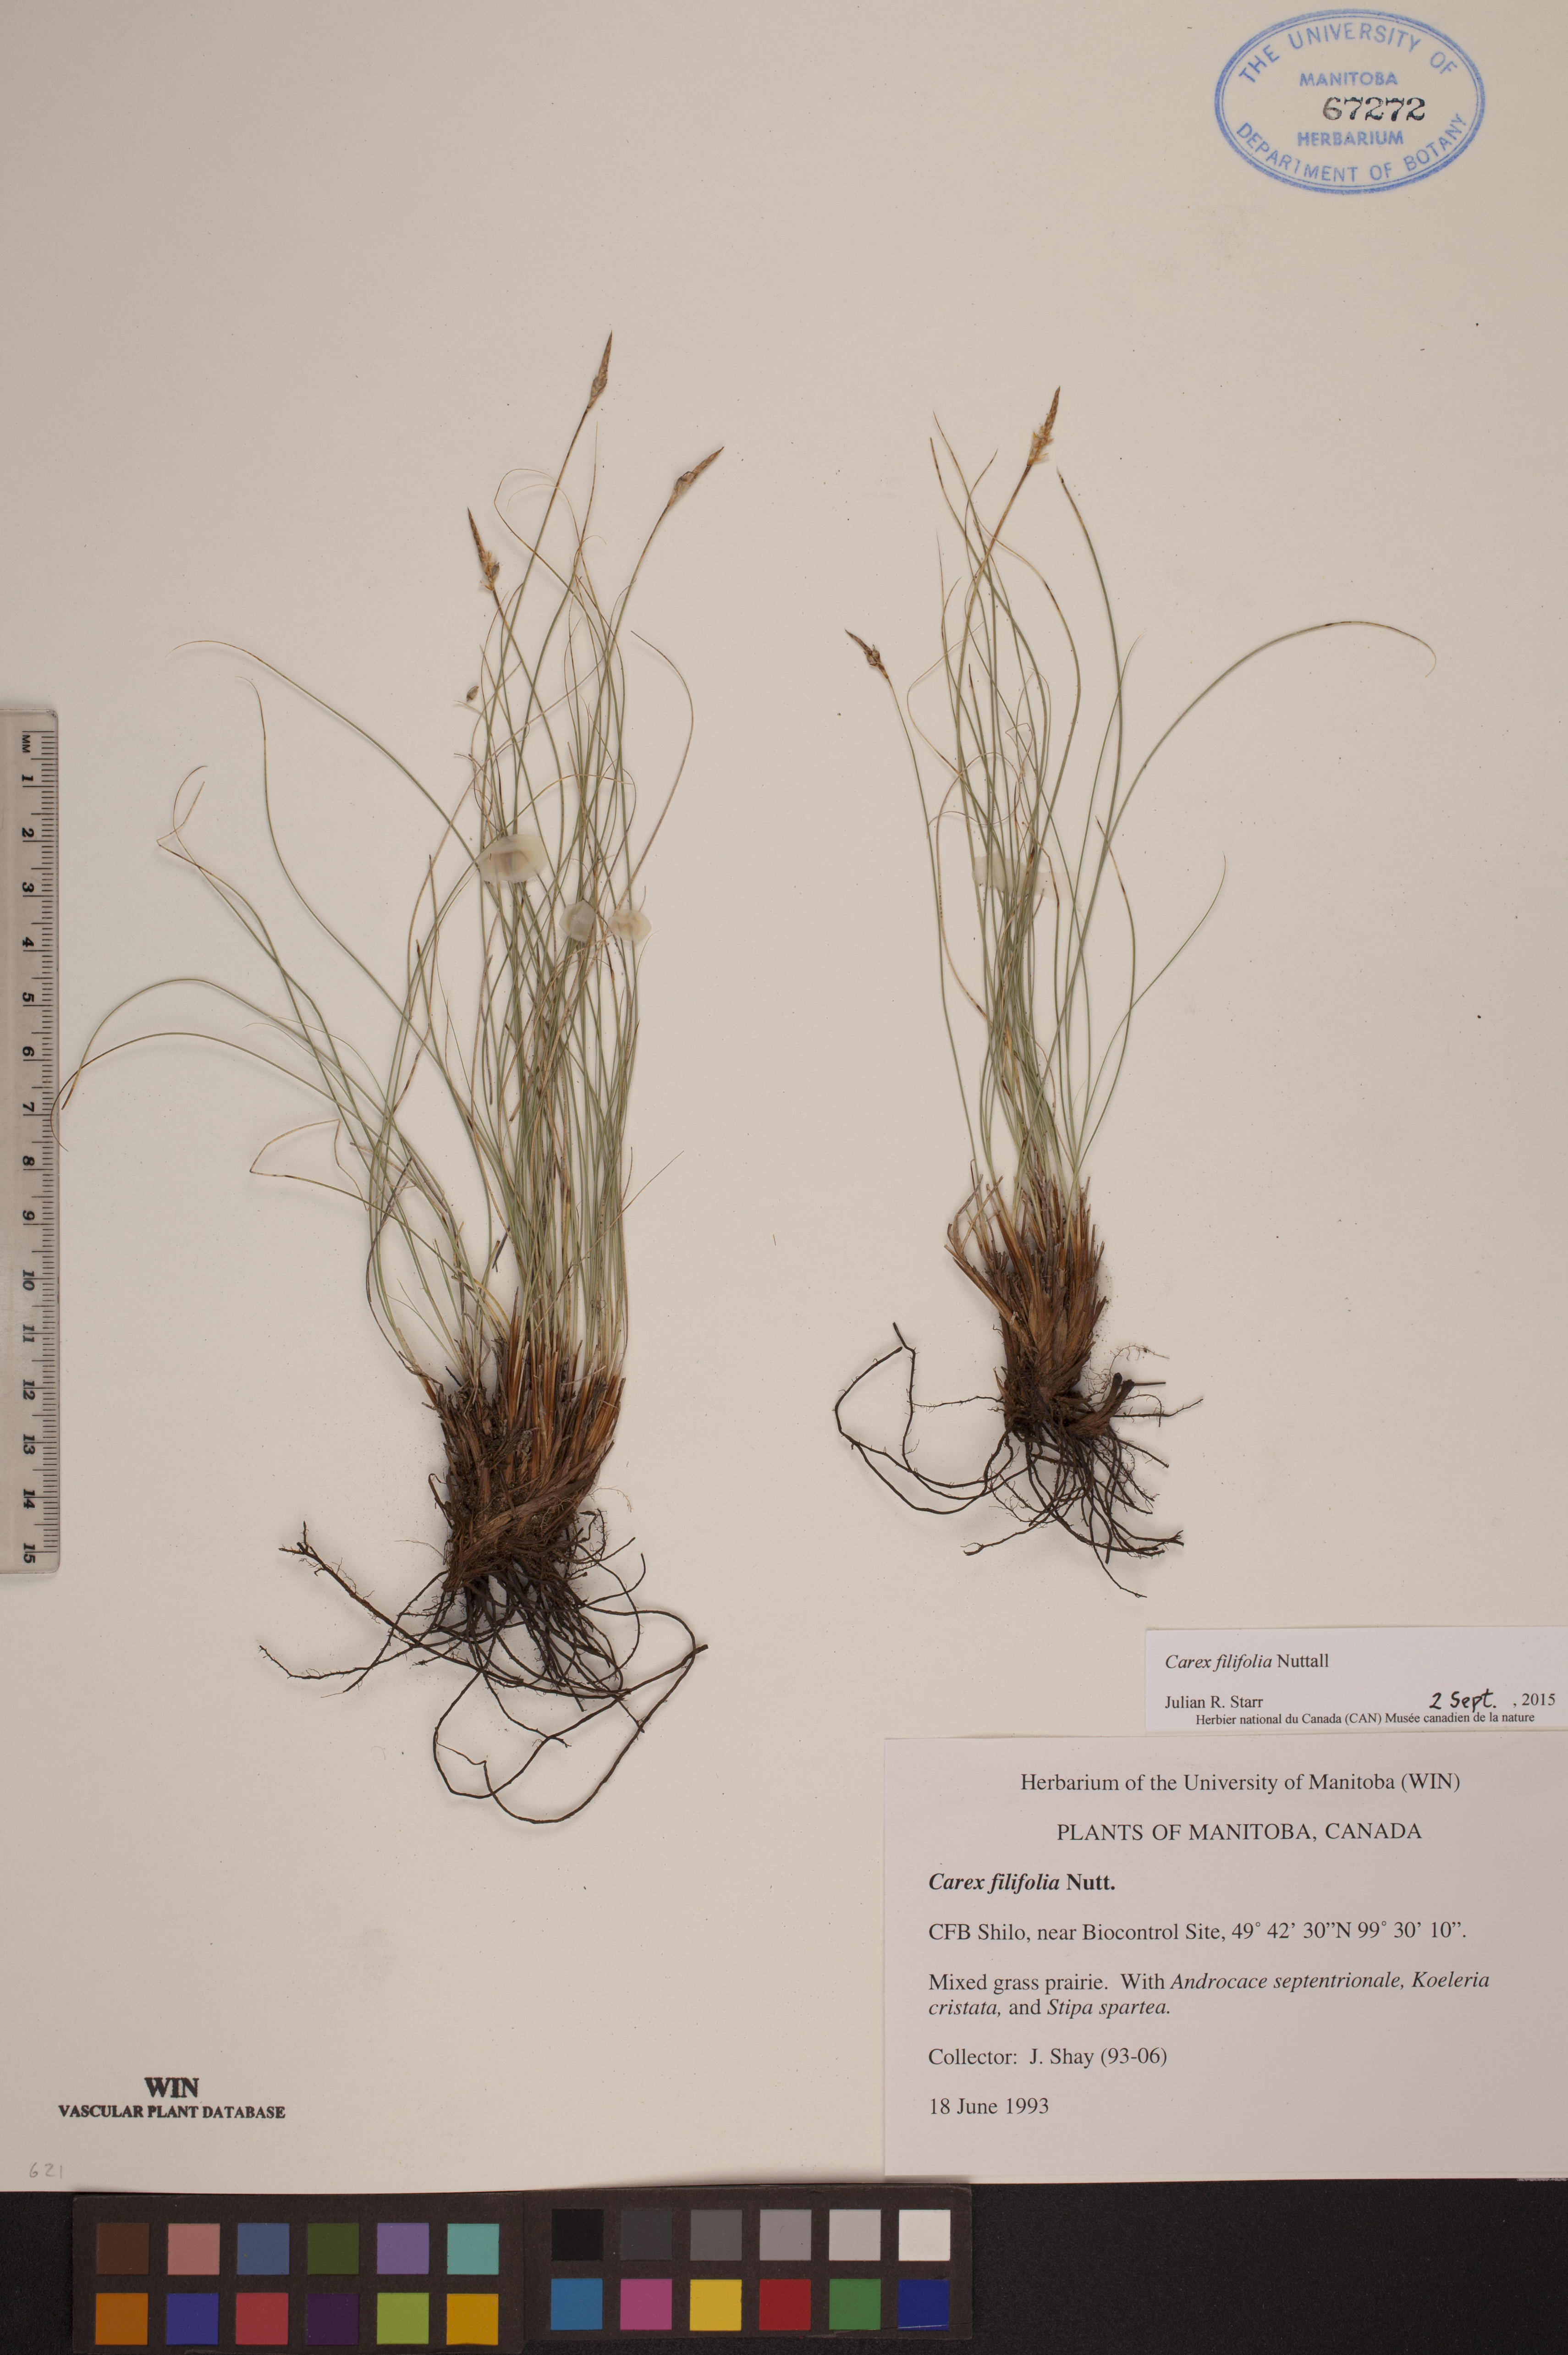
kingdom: Plantae
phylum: Tracheophyta
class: Liliopsida
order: Poales
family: Cyperaceae
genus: Carex
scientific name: Carex filifolia
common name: Threadleaf sedge
